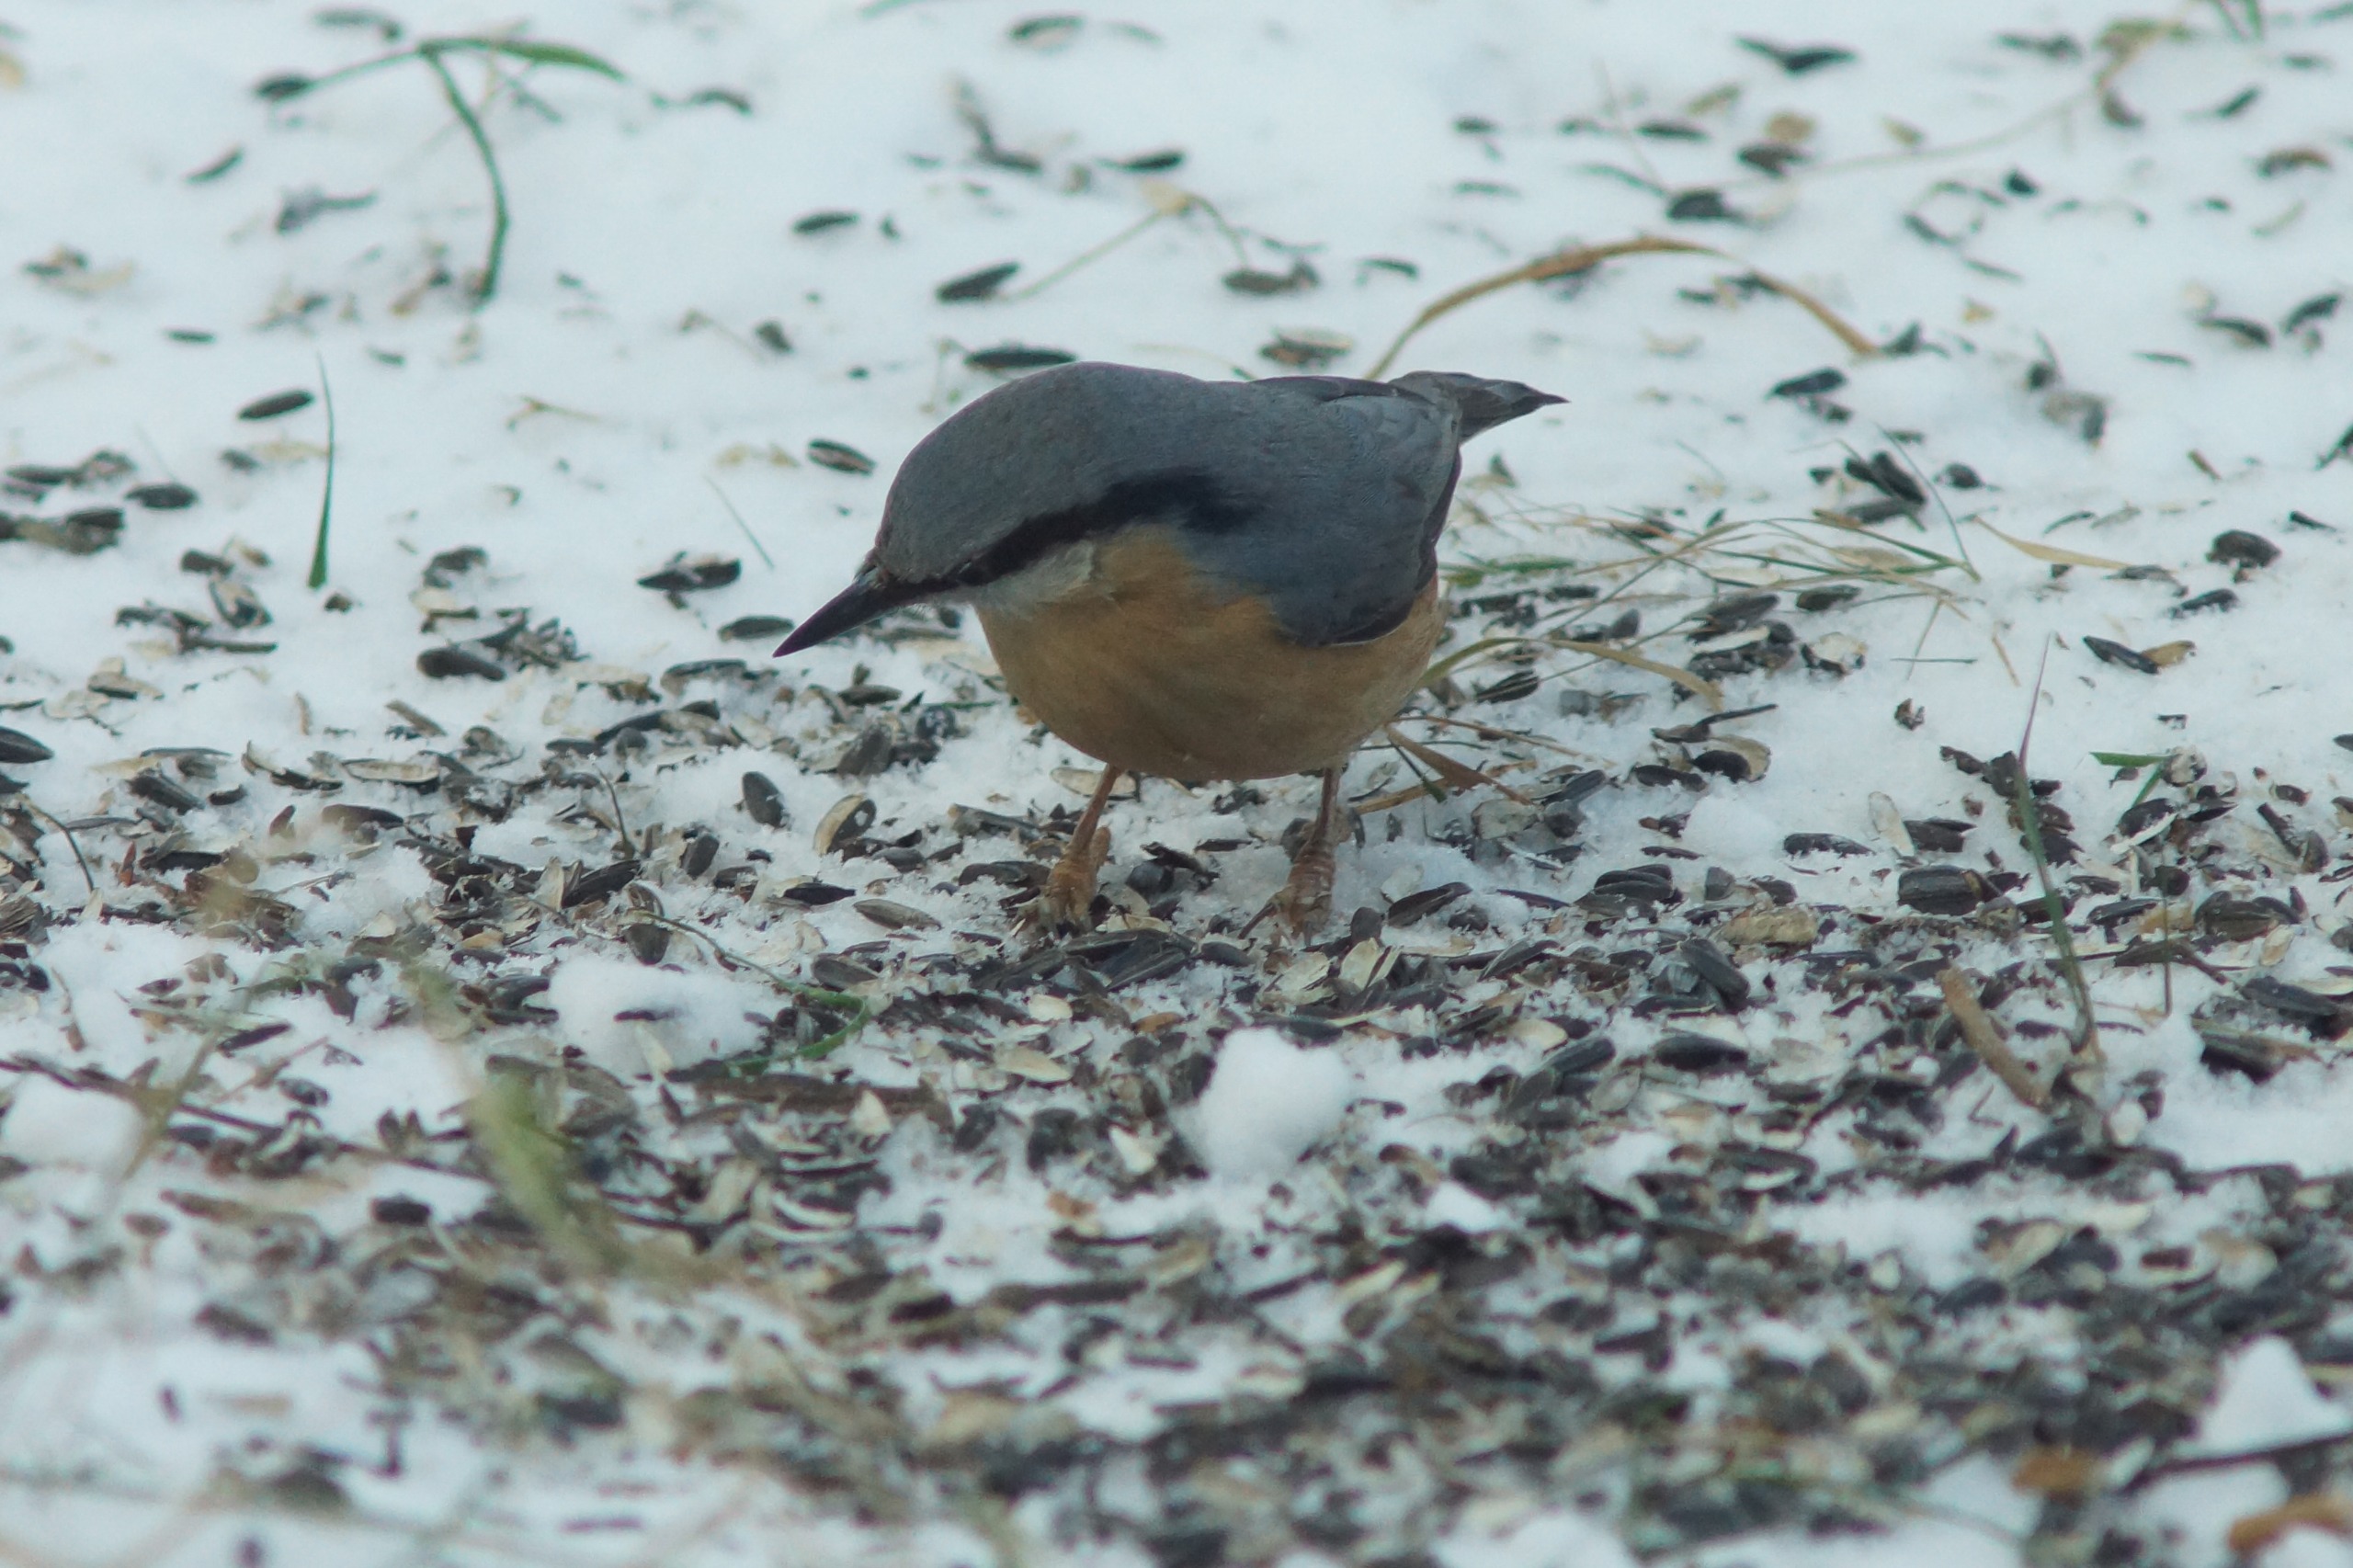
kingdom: Animalia
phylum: Chordata
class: Aves
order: Passeriformes
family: Sittidae
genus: Sitta
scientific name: Sitta europaea
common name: Spætmejse
